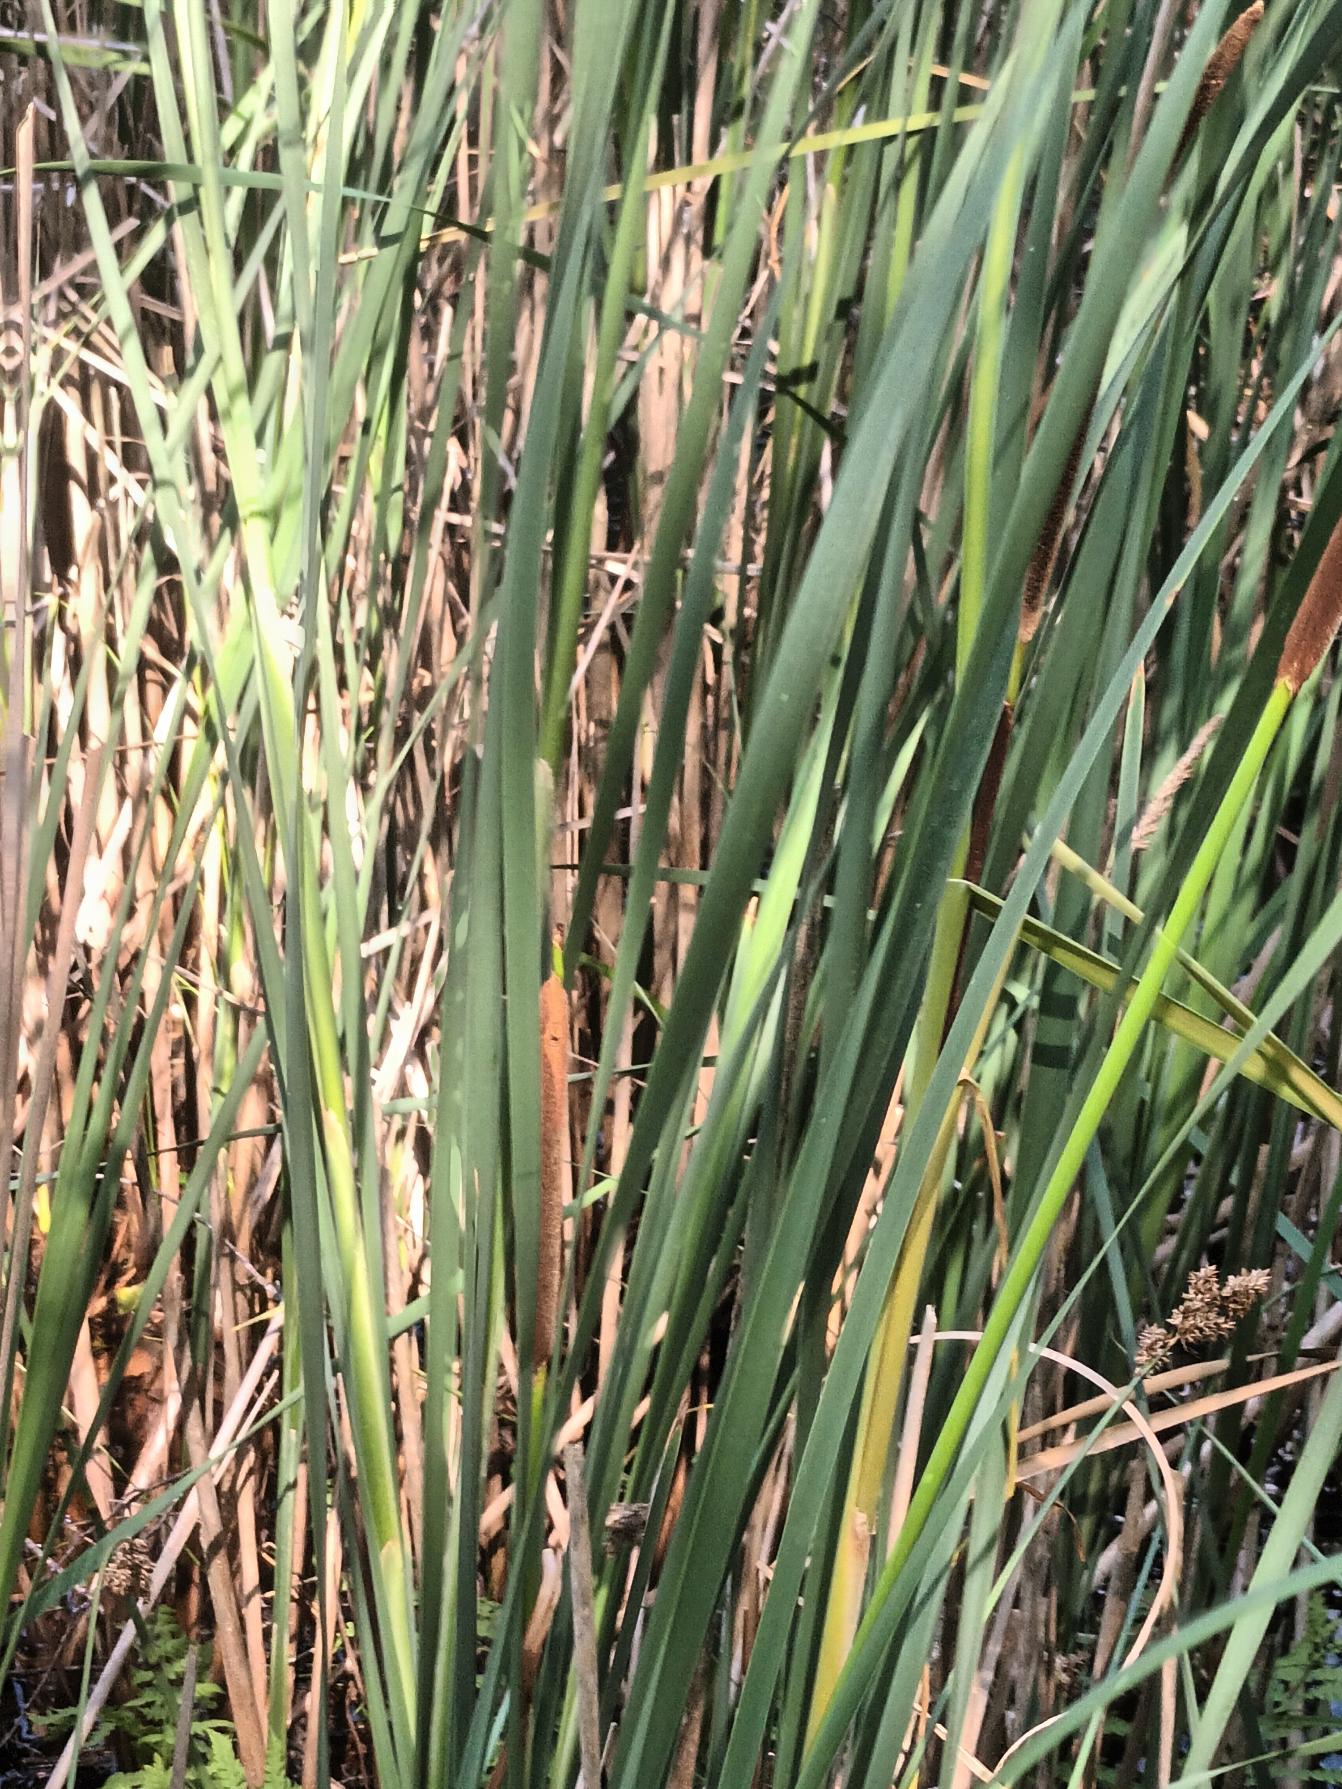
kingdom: Plantae
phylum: Tracheophyta
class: Liliopsida
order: Poales
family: Typhaceae
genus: Typha
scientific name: Typha
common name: Smalbladet dunhammer × bredbladet dunhammer
